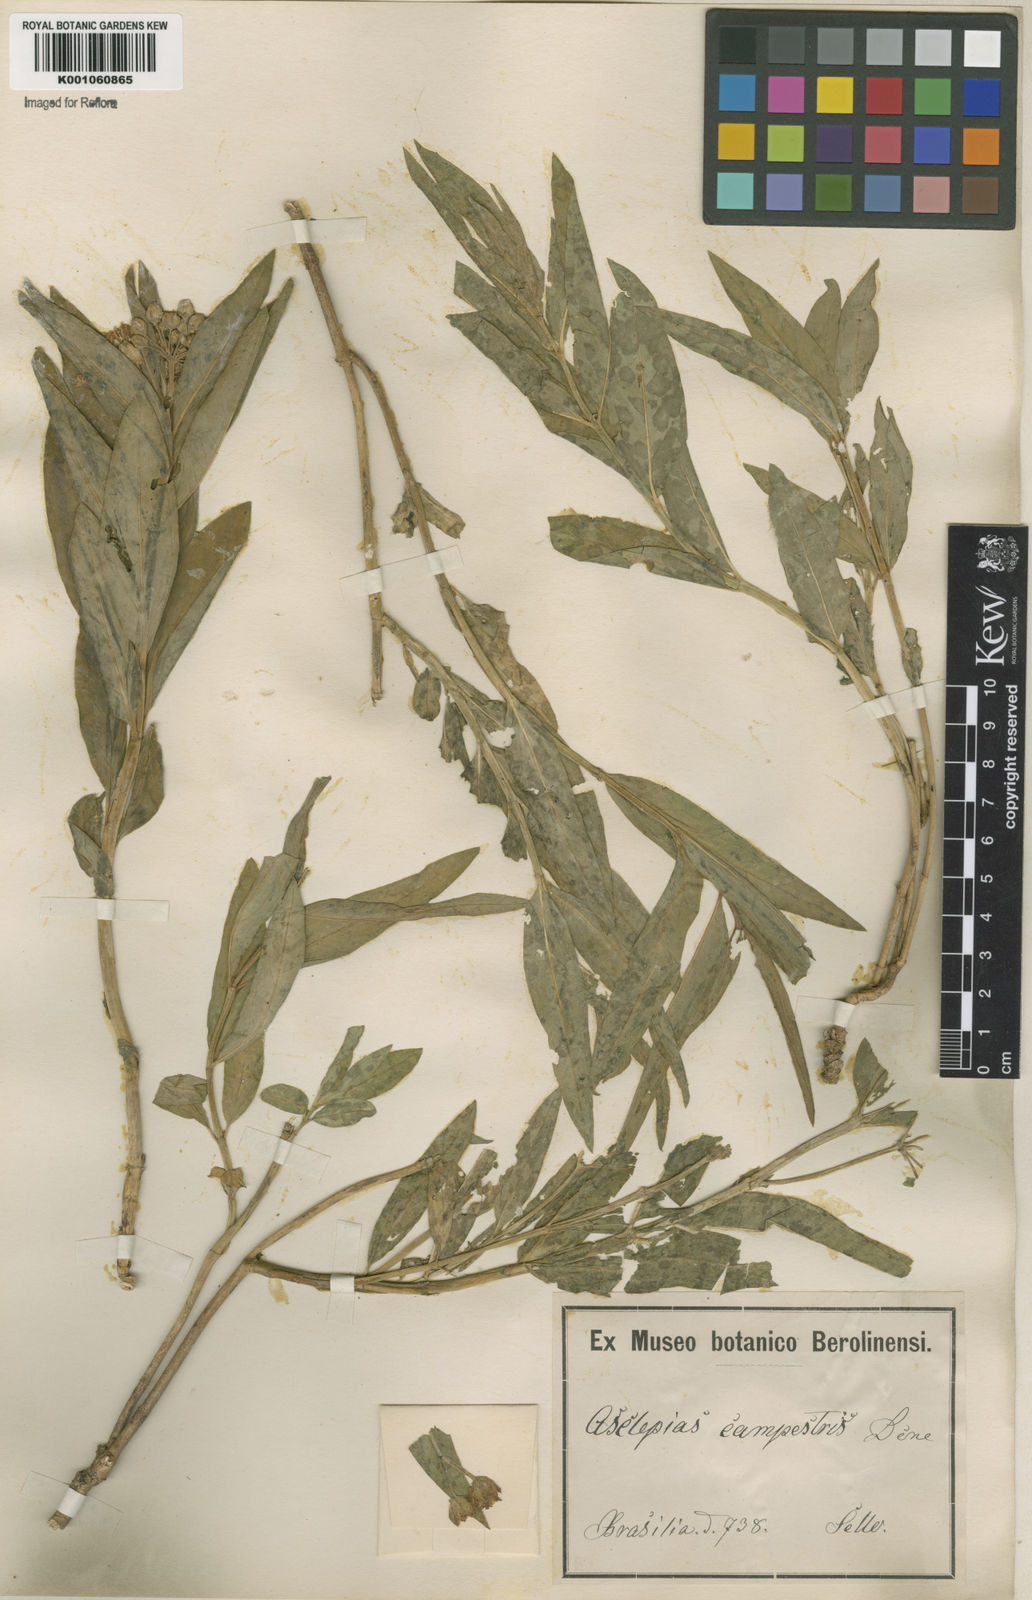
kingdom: Plantae
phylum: Tracheophyta
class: Magnoliopsida
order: Gentianales
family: Apocynaceae
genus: Asclepias
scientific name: Asclepias mellodora
